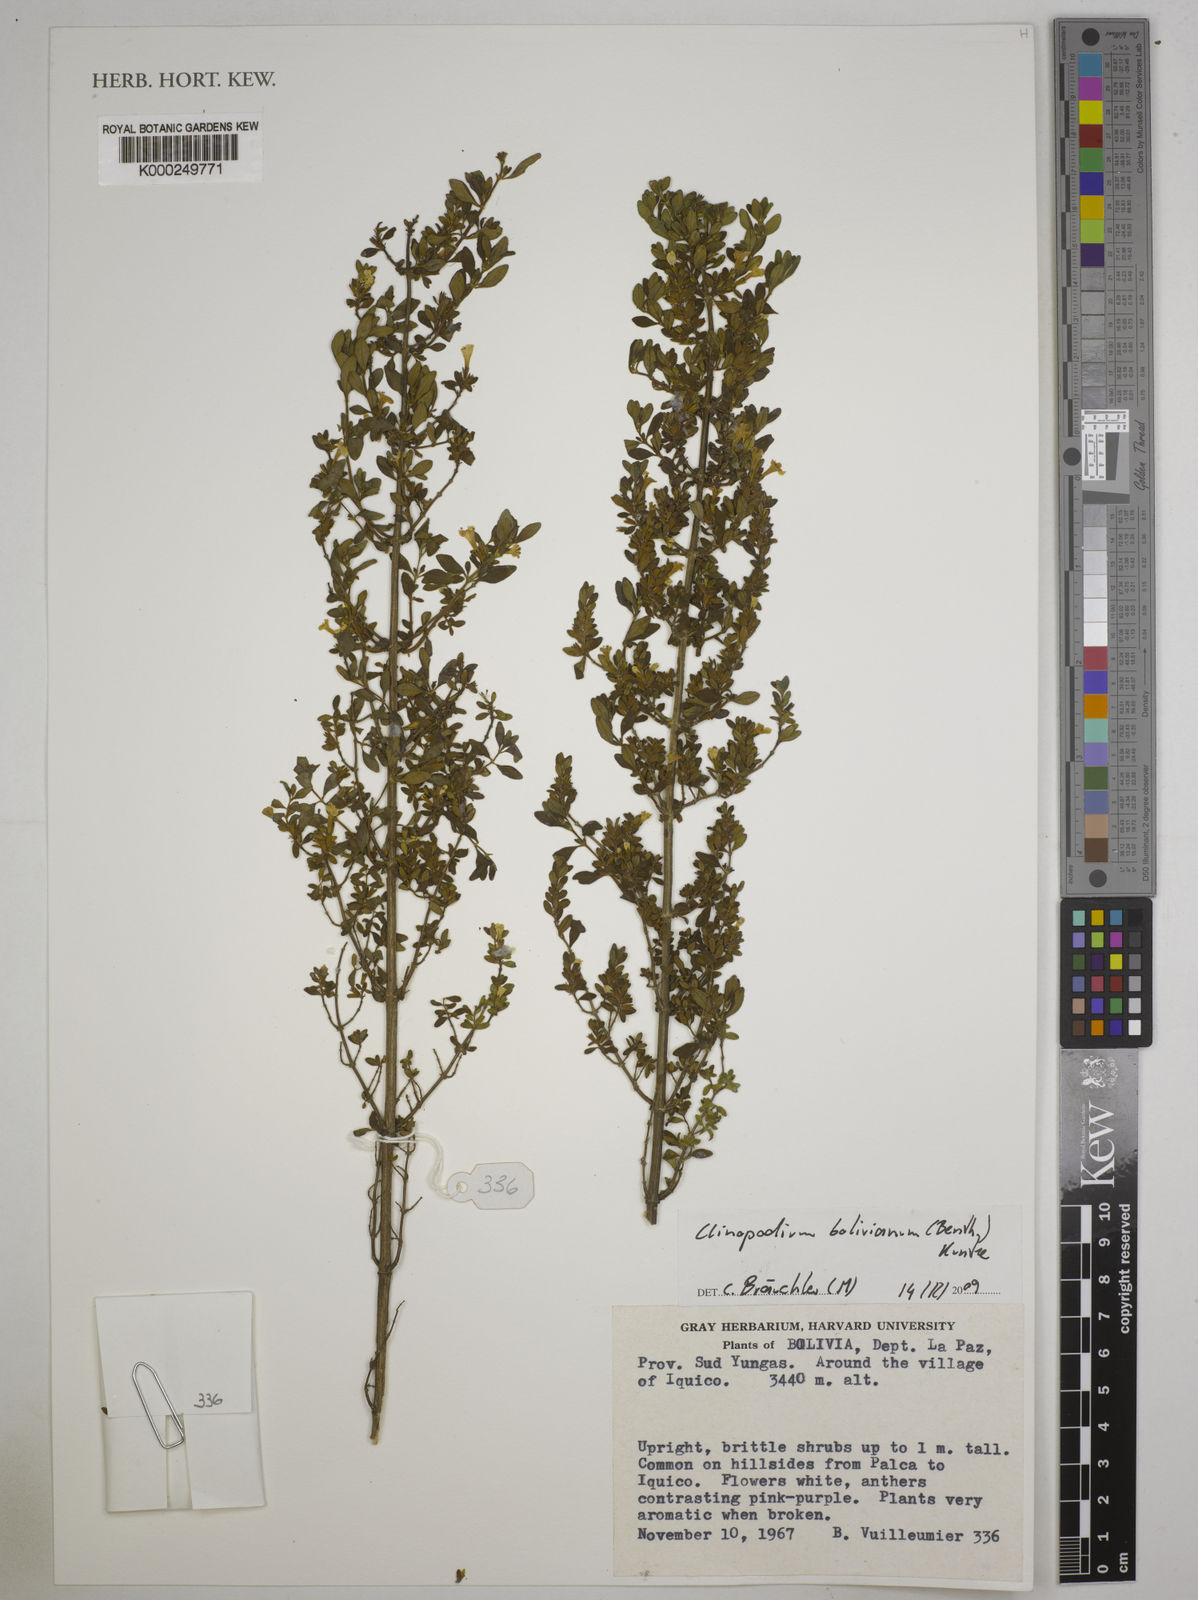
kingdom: Plantae
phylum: Tracheophyta
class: Magnoliopsida
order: Lamiales
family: Lamiaceae
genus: Clinopodium
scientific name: Clinopodium bolivianum
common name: Inca muña
